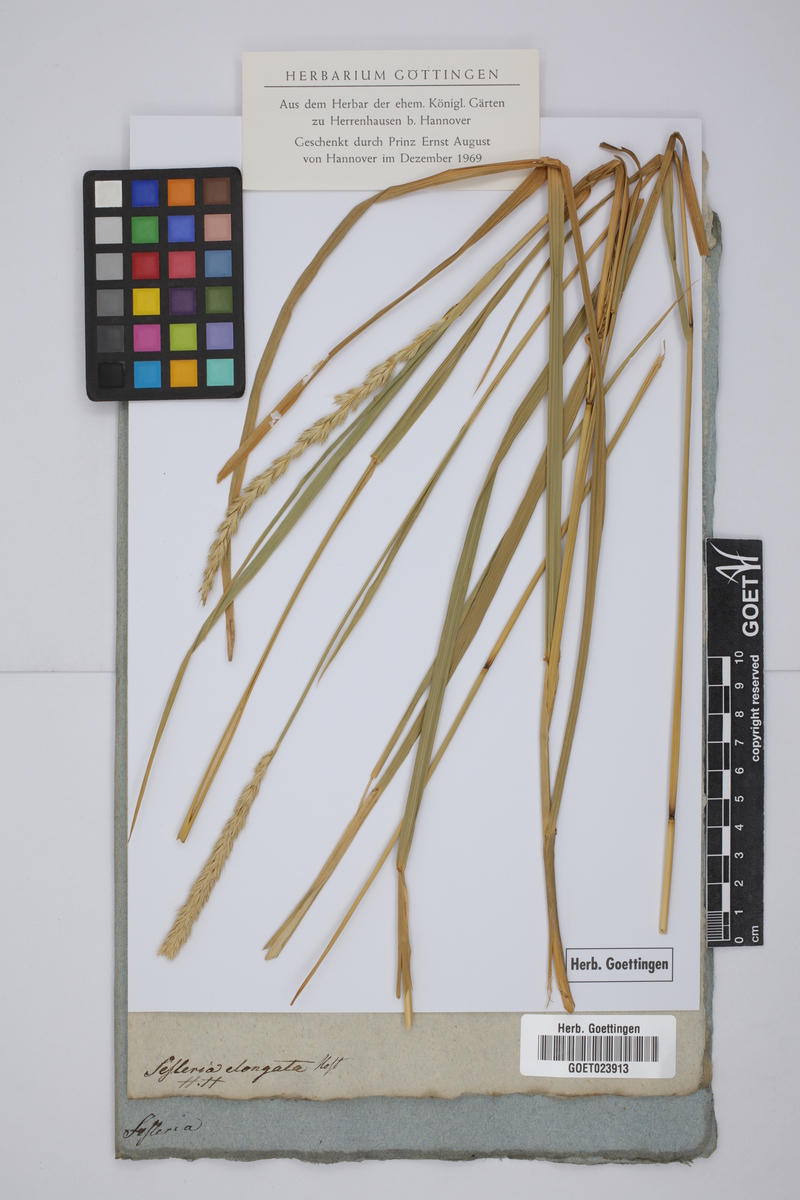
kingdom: Plantae
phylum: Tracheophyta
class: Liliopsida
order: Poales
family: Poaceae
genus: Sesleria
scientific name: Sesleria autumnalis
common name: Autumn moor grass
